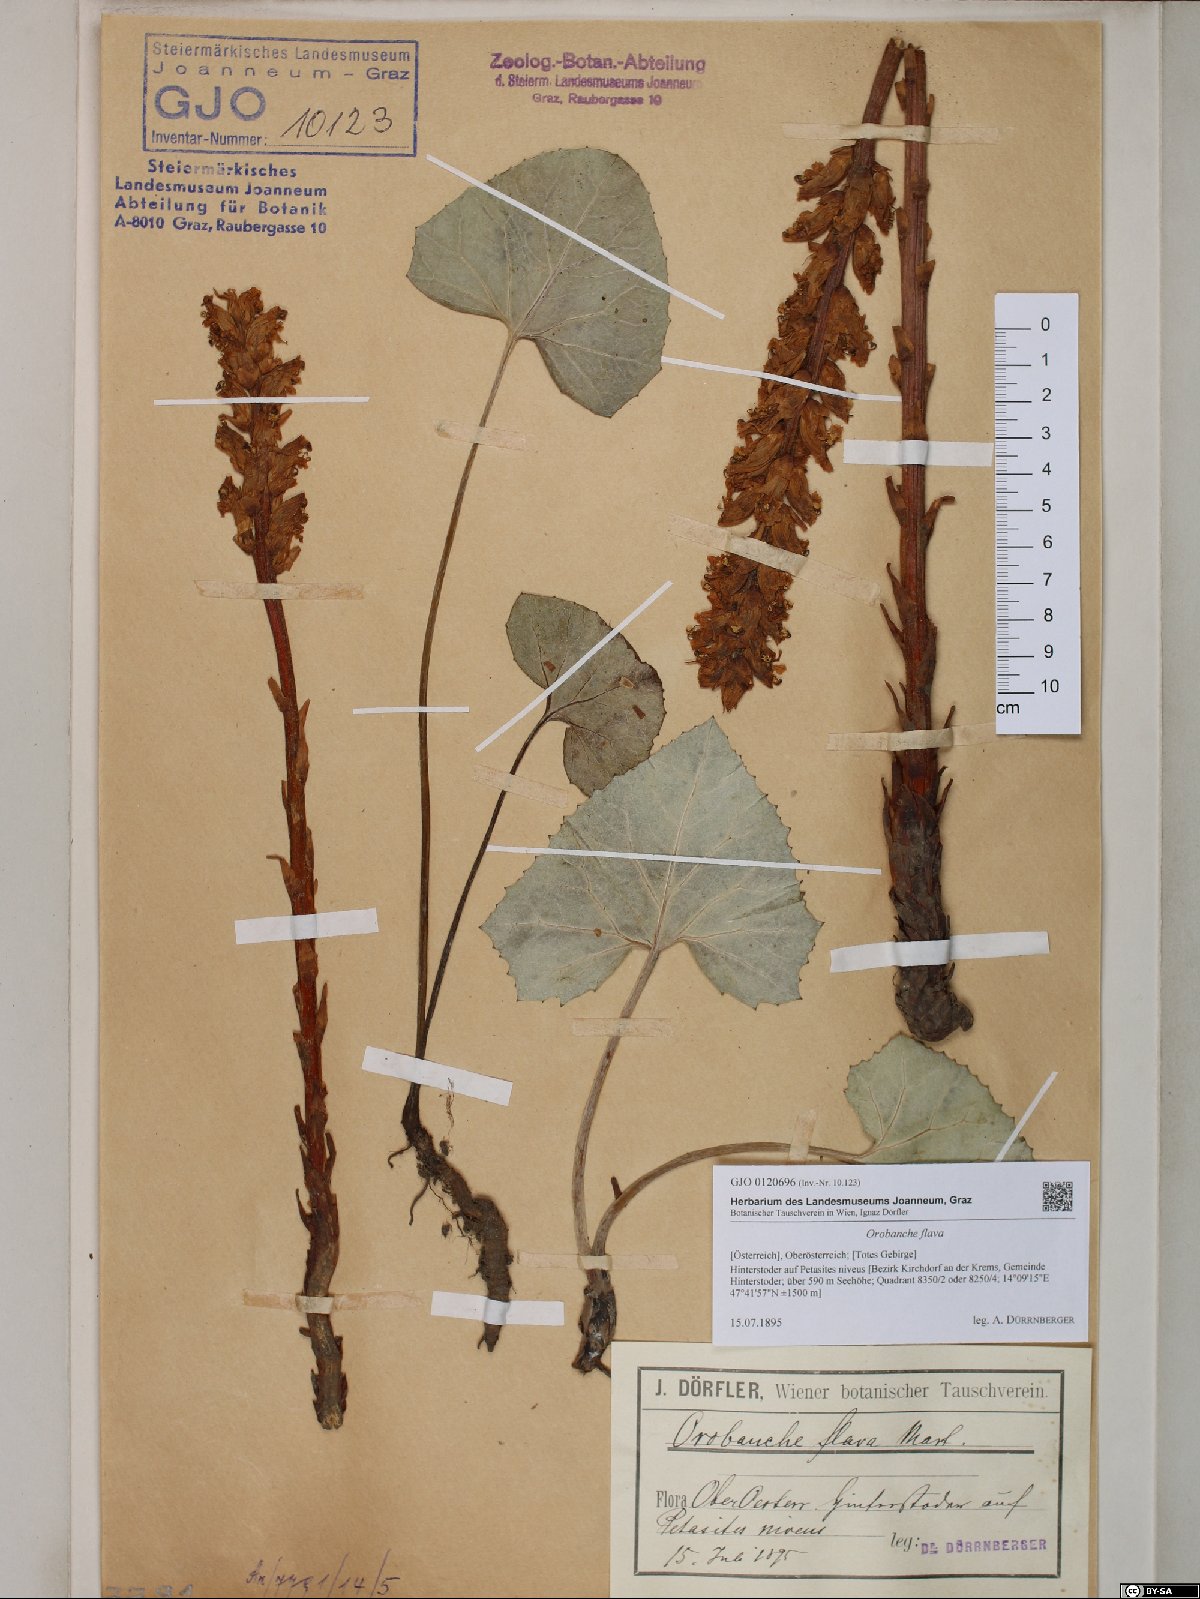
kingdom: Plantae
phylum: Tracheophyta
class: Magnoliopsida
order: Lamiales
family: Orobanchaceae
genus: Orobanche
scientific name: Orobanche flava
